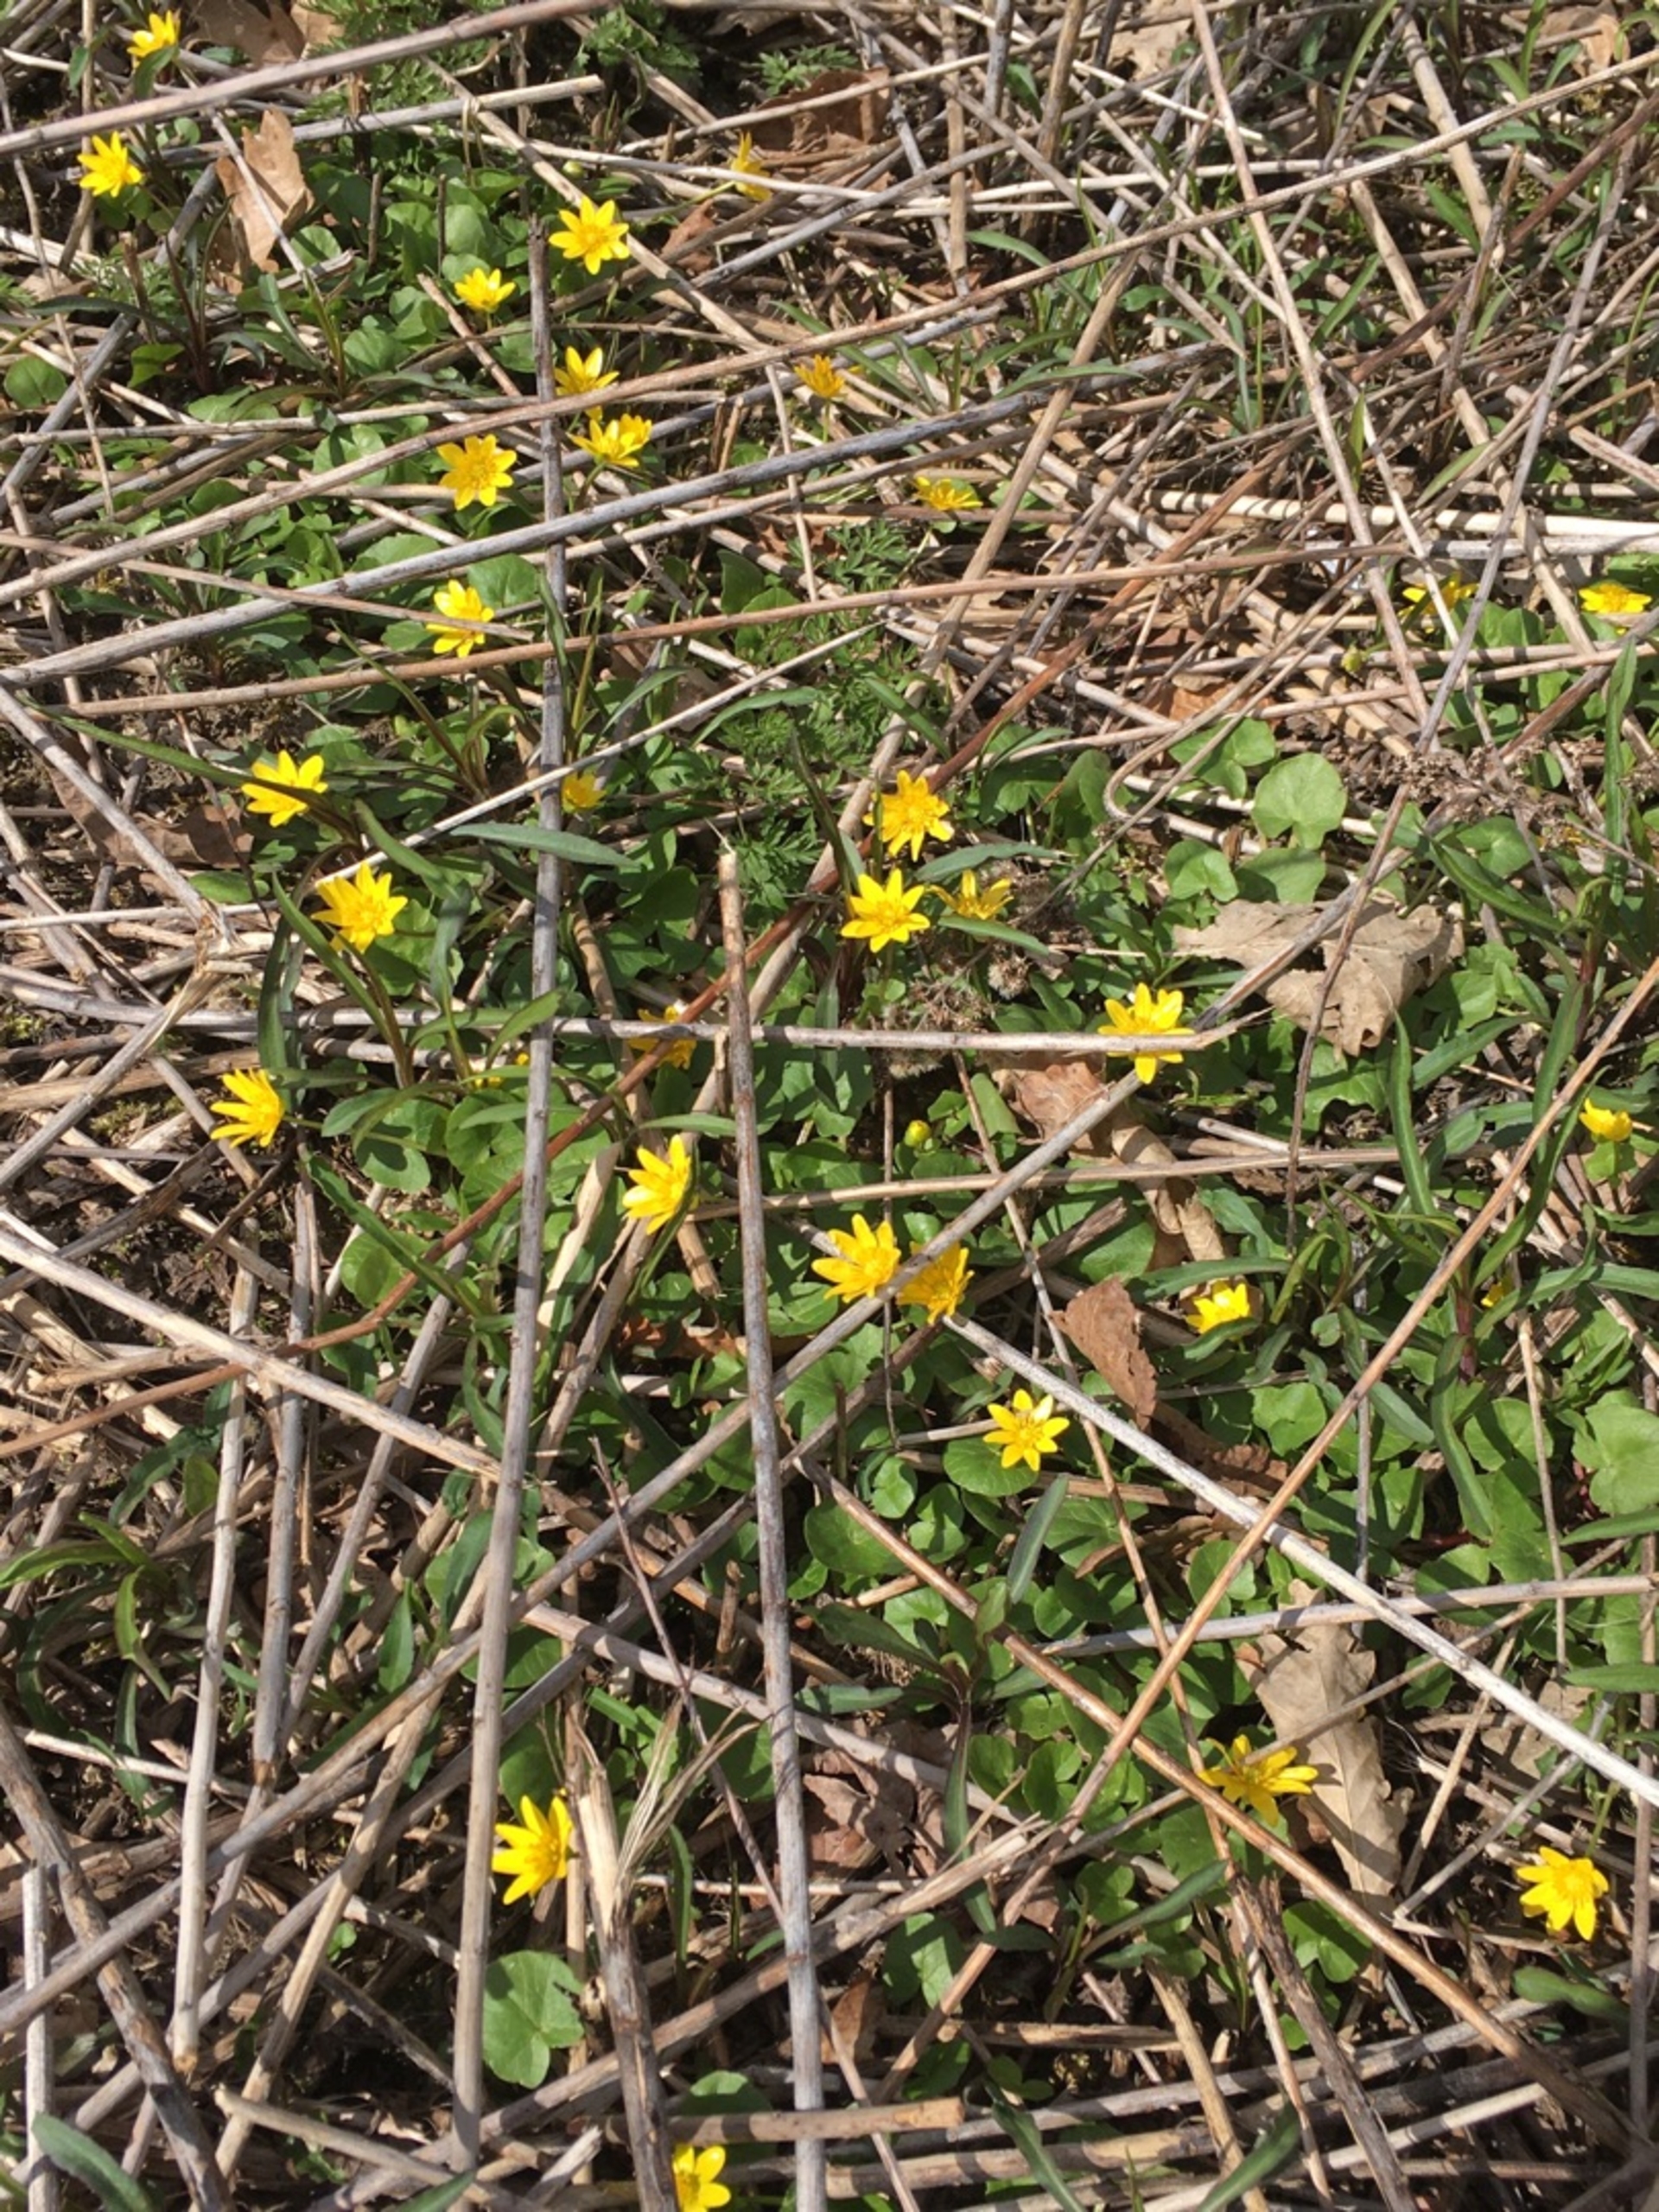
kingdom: Plantae
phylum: Tracheophyta
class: Magnoliopsida
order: Ranunculales
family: Ranunculaceae
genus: Ficaria
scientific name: Ficaria verna
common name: Vorterod
